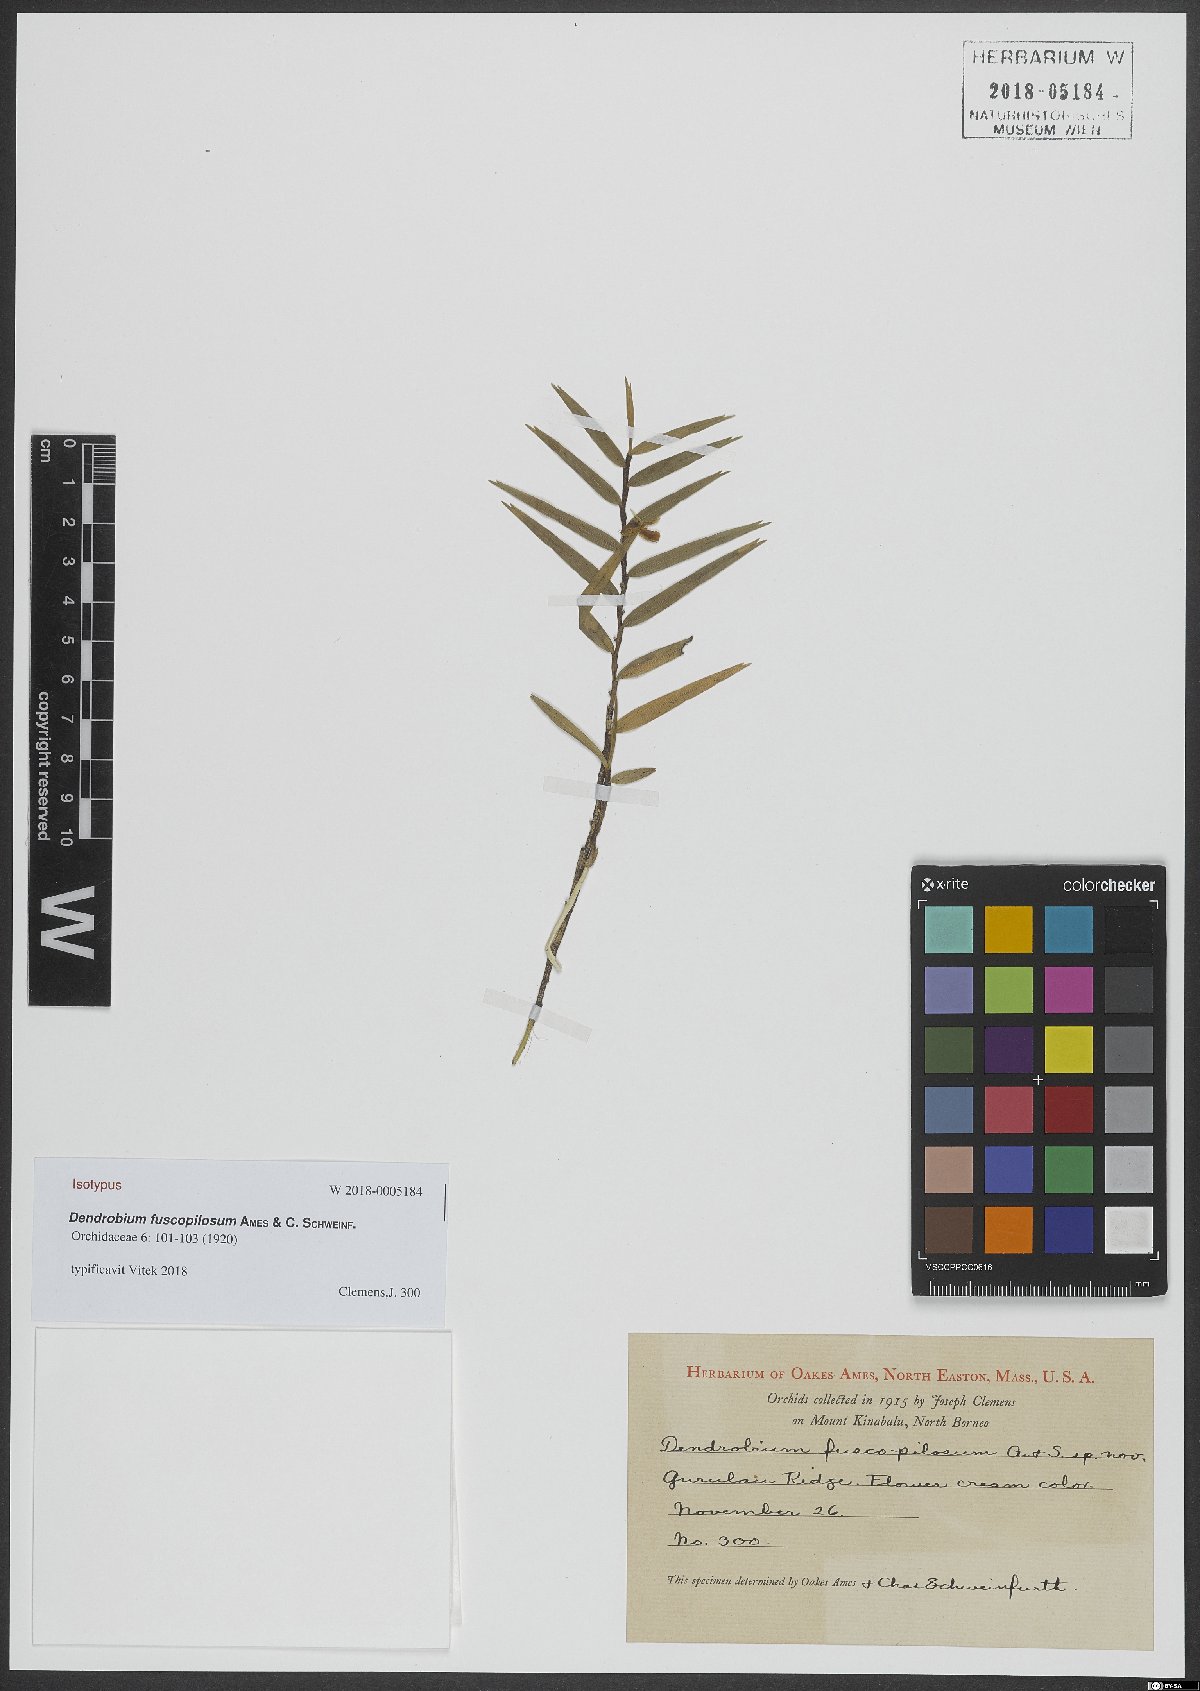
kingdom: Plantae
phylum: Tracheophyta
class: Liliopsida
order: Asparagales
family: Orchidaceae
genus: Dendrobium
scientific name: Dendrobium gramineum
